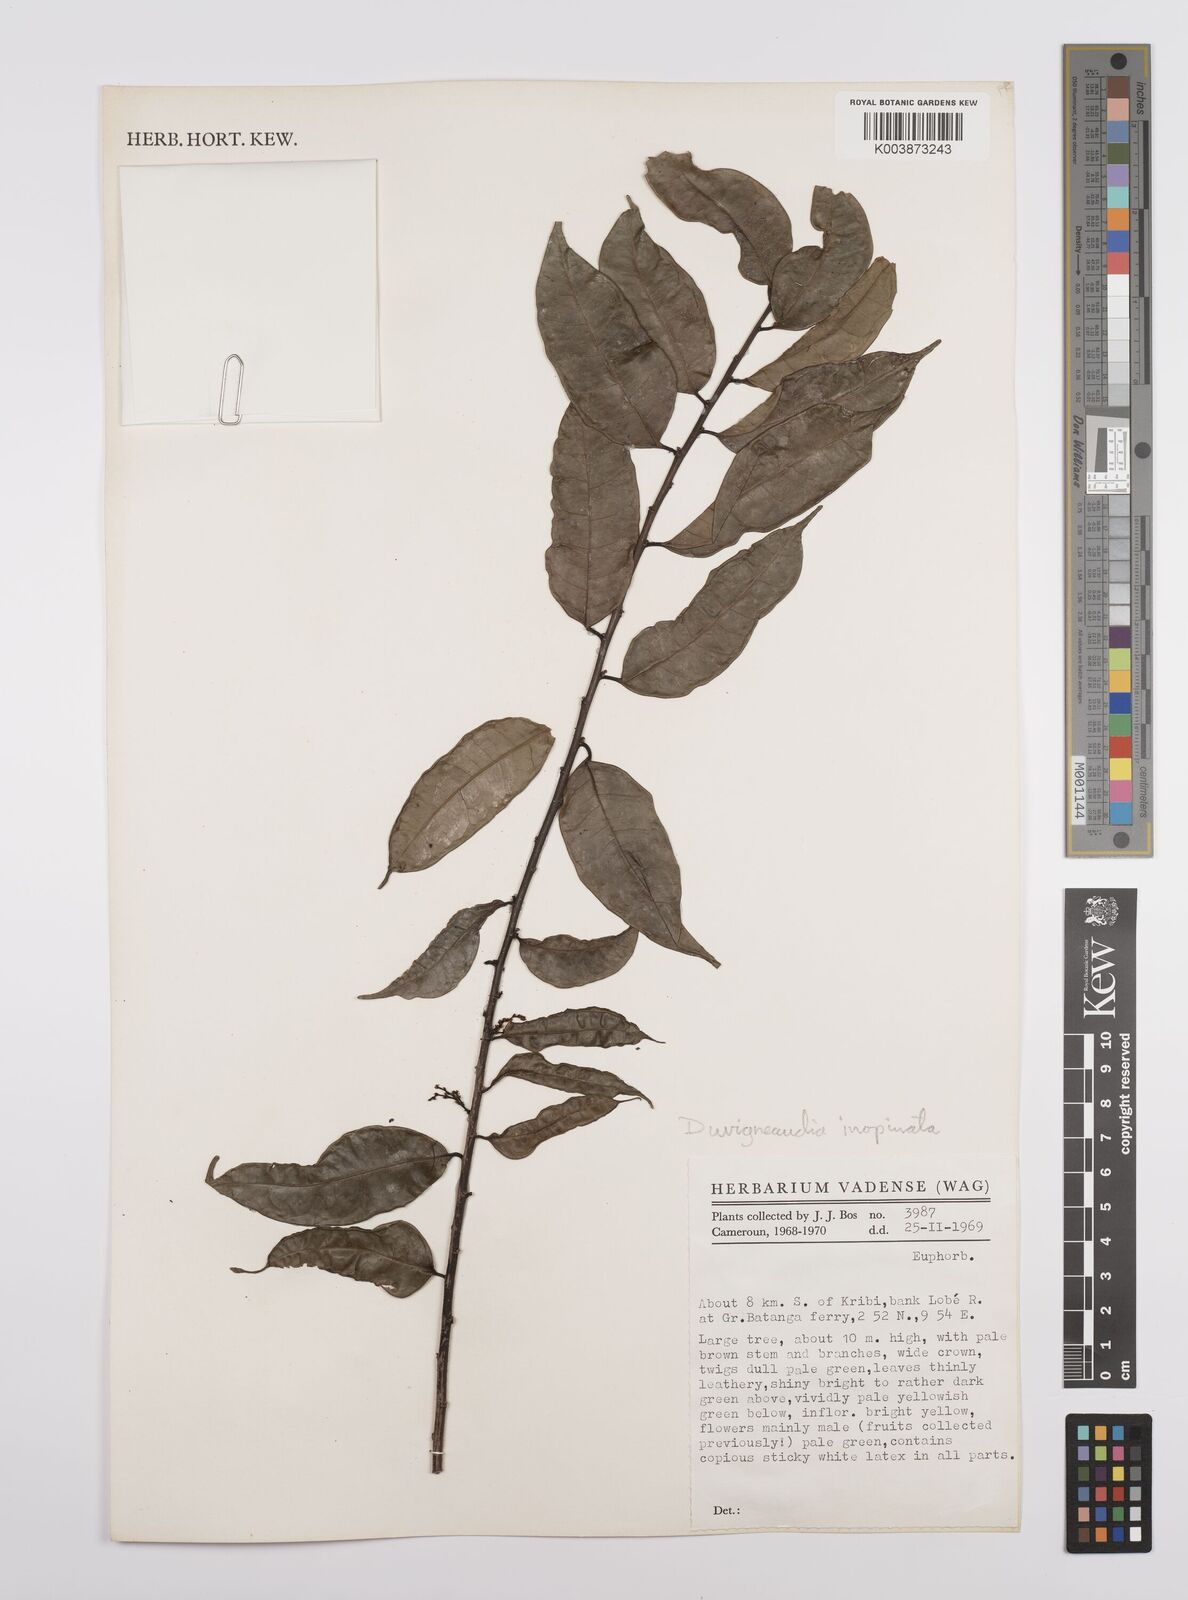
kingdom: Plantae
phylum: Tracheophyta
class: Magnoliopsida
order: Malpighiales
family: Euphorbiaceae
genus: Gymnanthes
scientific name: Gymnanthes inopinata
